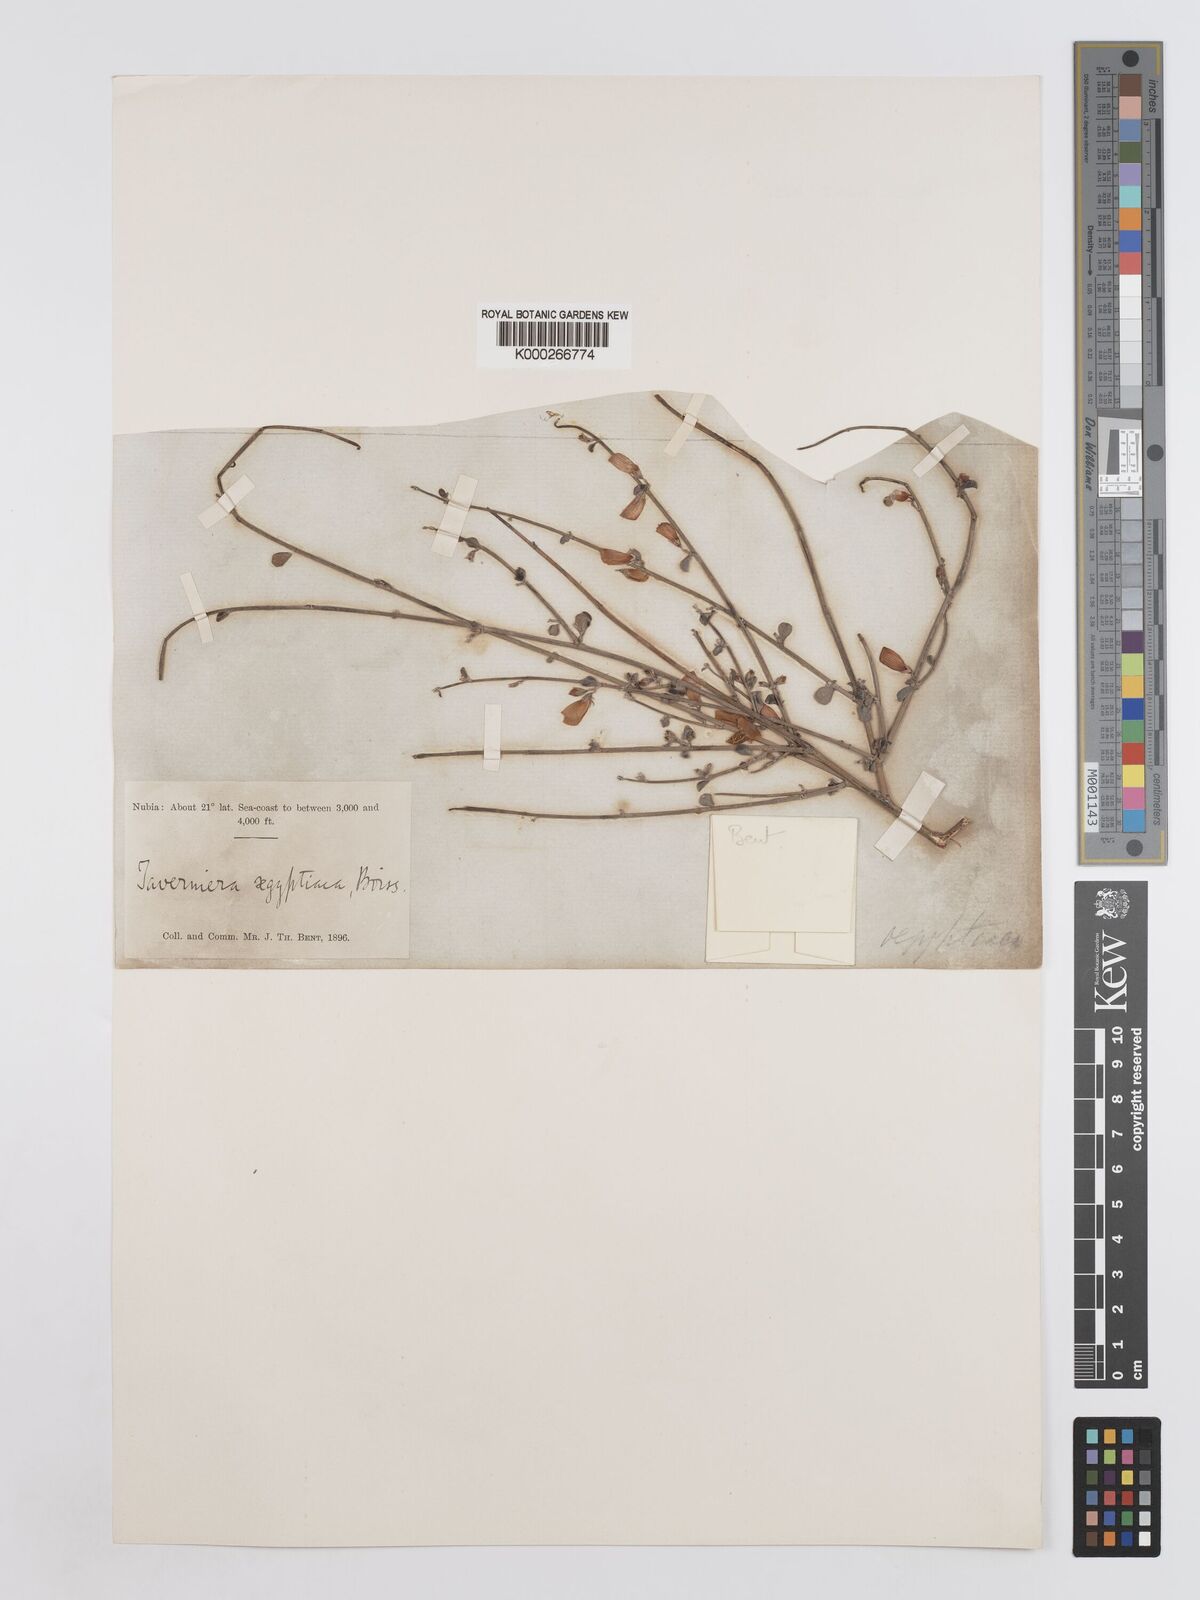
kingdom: Plantae
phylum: Tracheophyta
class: Magnoliopsida
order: Fabales
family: Fabaceae
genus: Taverniera
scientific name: Taverniera aegyptiaca
